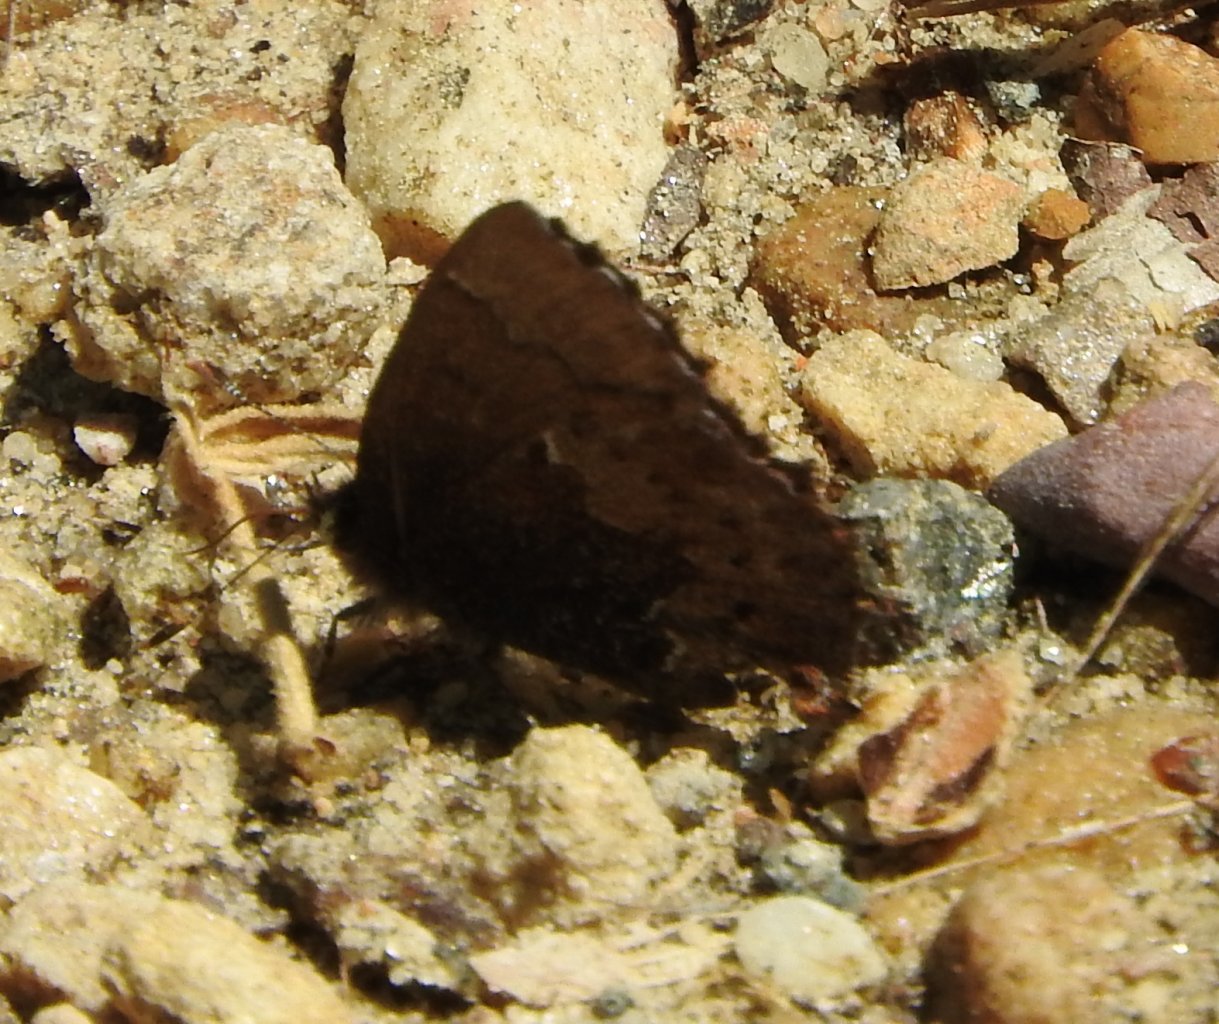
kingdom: Animalia
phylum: Arthropoda
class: Insecta
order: Lepidoptera
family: Lycaenidae
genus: Incisalia
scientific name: Incisalia henrici
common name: Henry's Elfin
